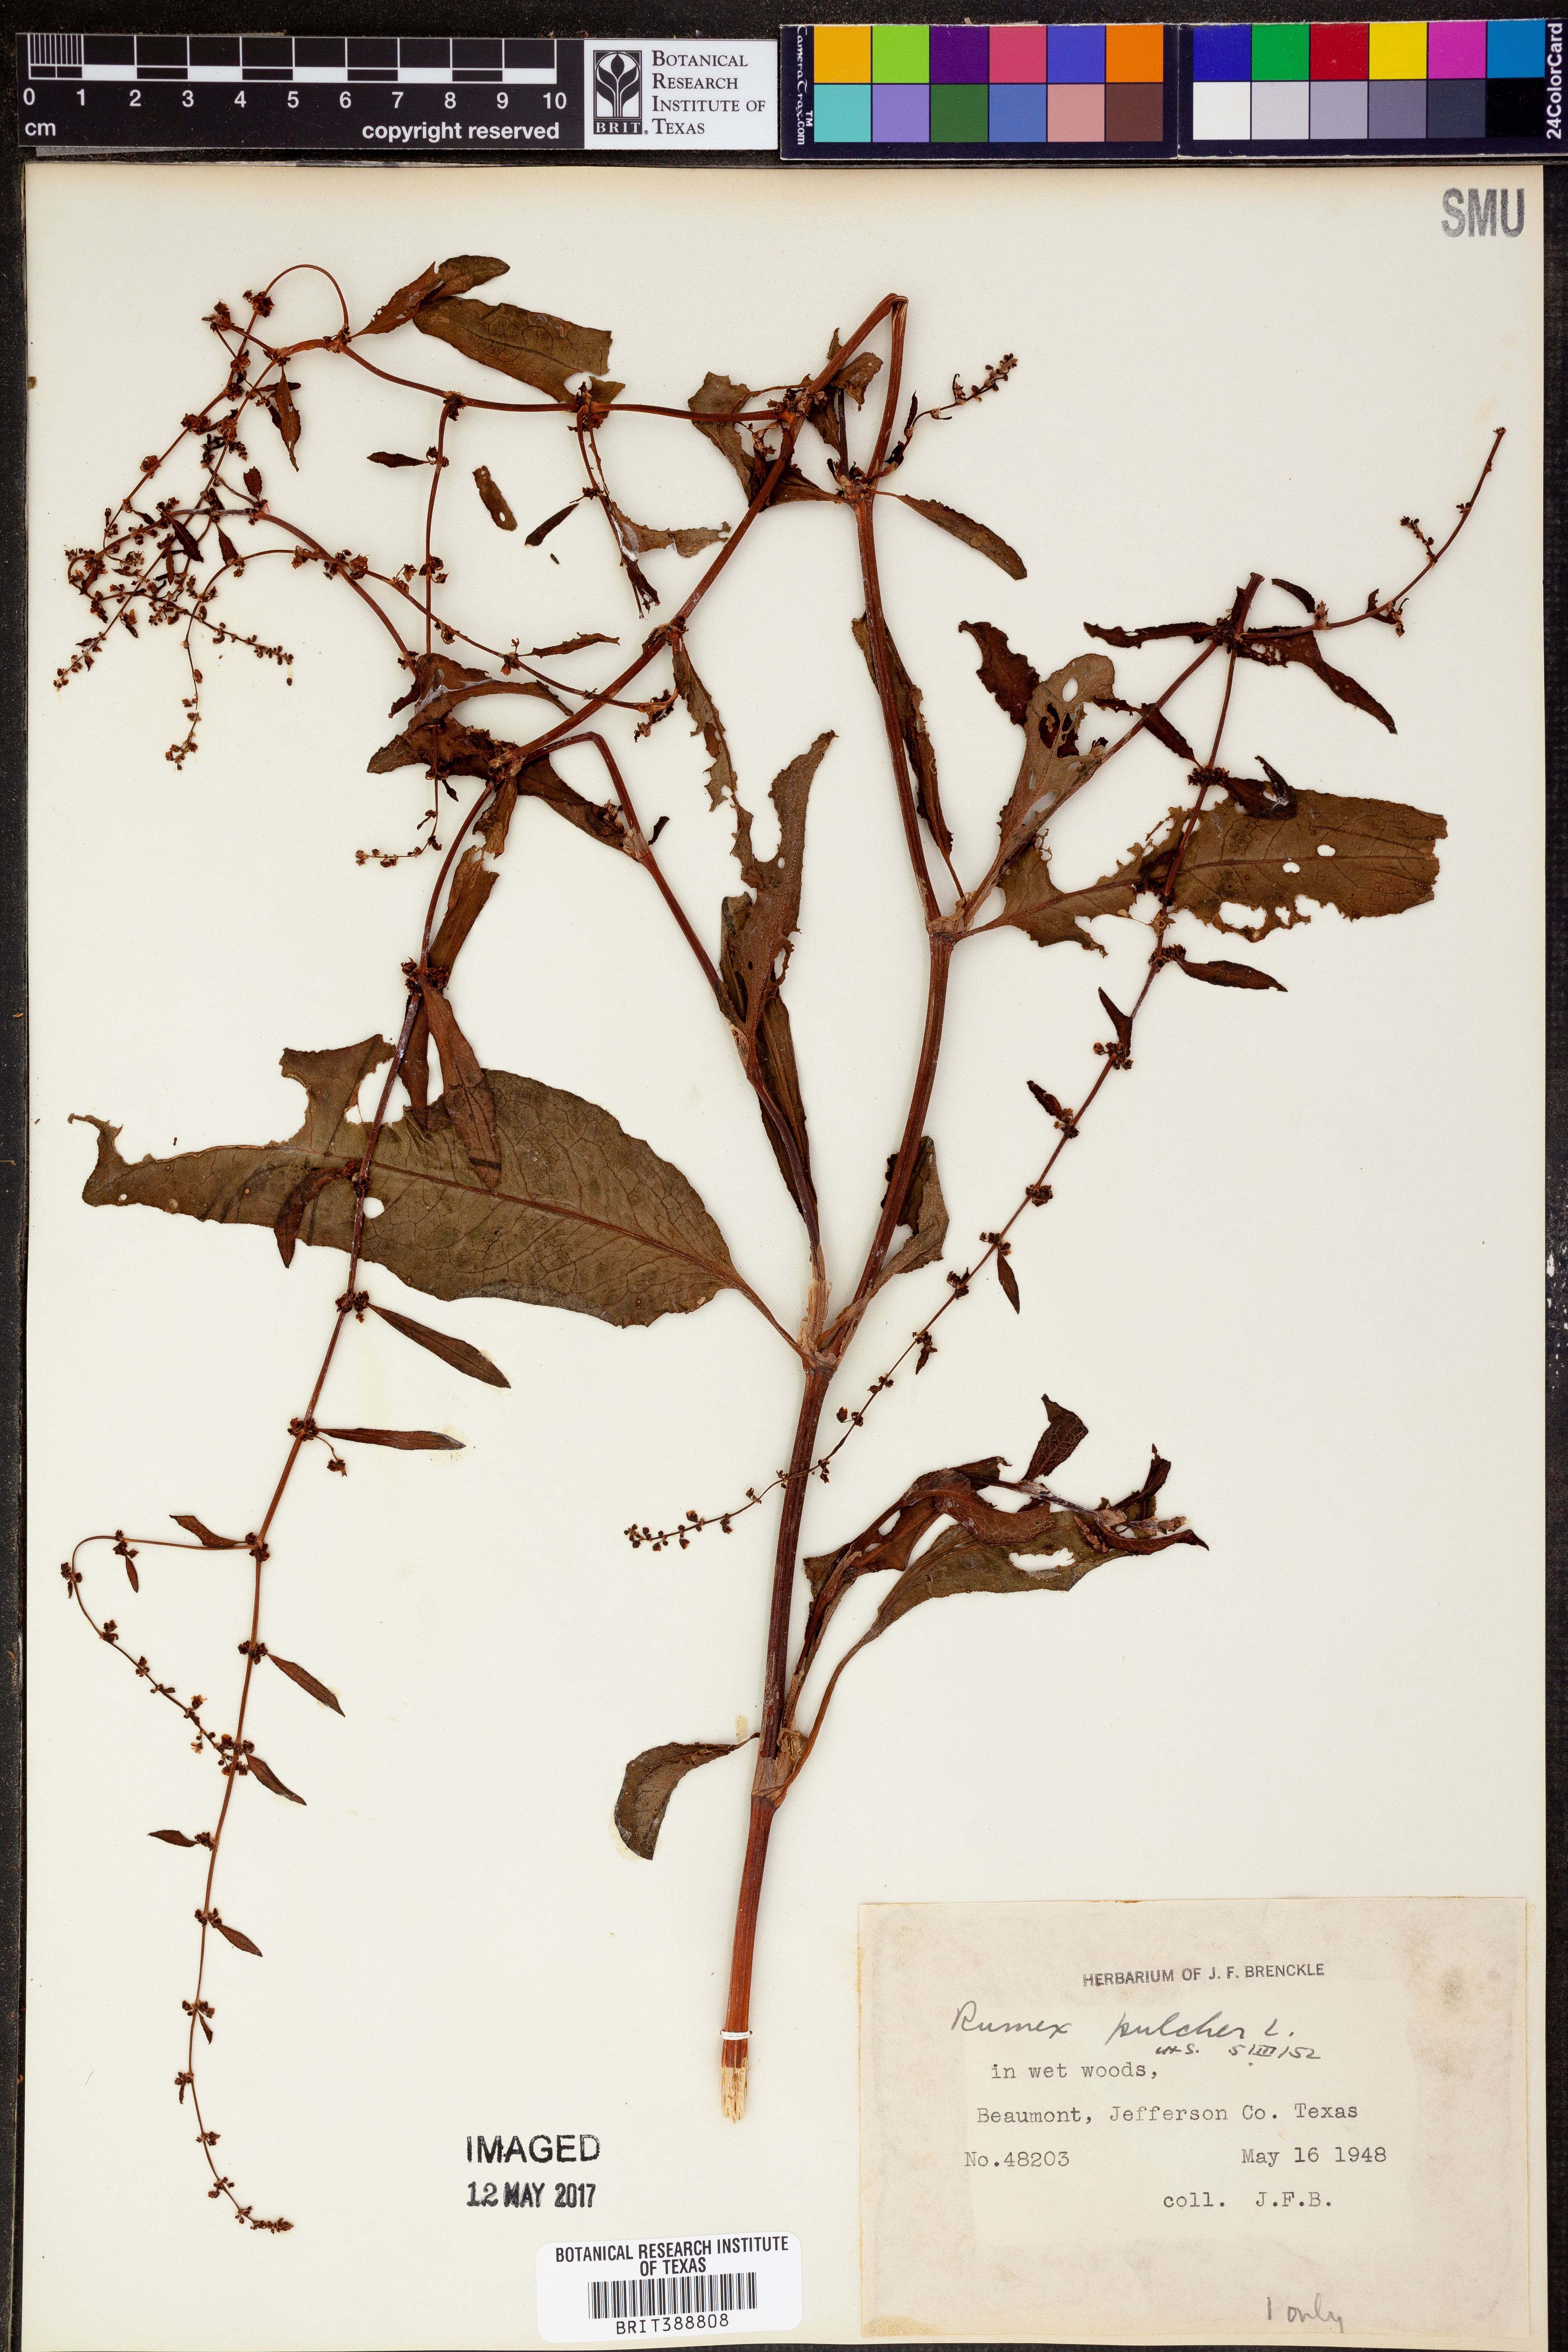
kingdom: Plantae
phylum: Tracheophyta
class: Magnoliopsida
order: Caryophyllales
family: Polygonaceae
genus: Rumex
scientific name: Rumex pulcher
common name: Fiddle dock
